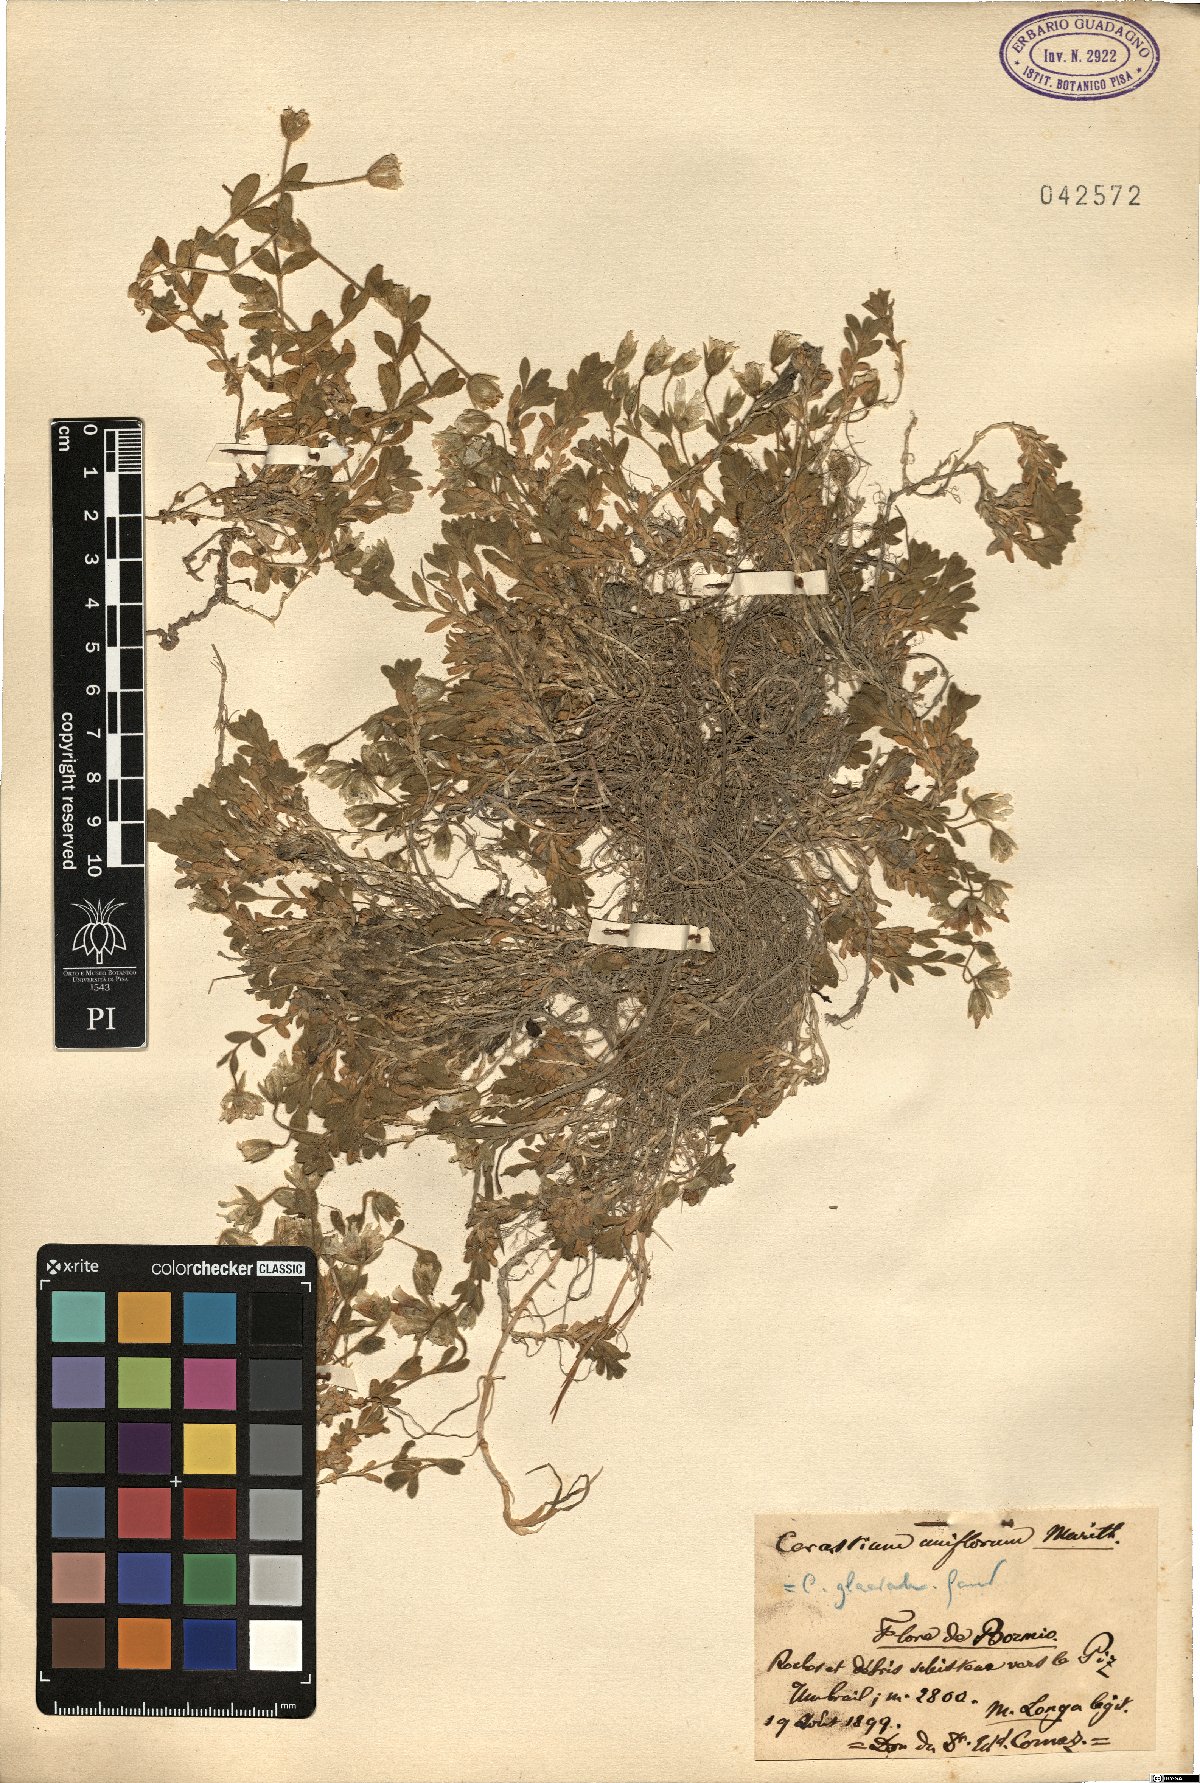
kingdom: Plantae
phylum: Tracheophyta
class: Magnoliopsida
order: Caryophyllales
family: Caryophyllaceae
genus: Cerastium
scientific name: Cerastium latifolium
